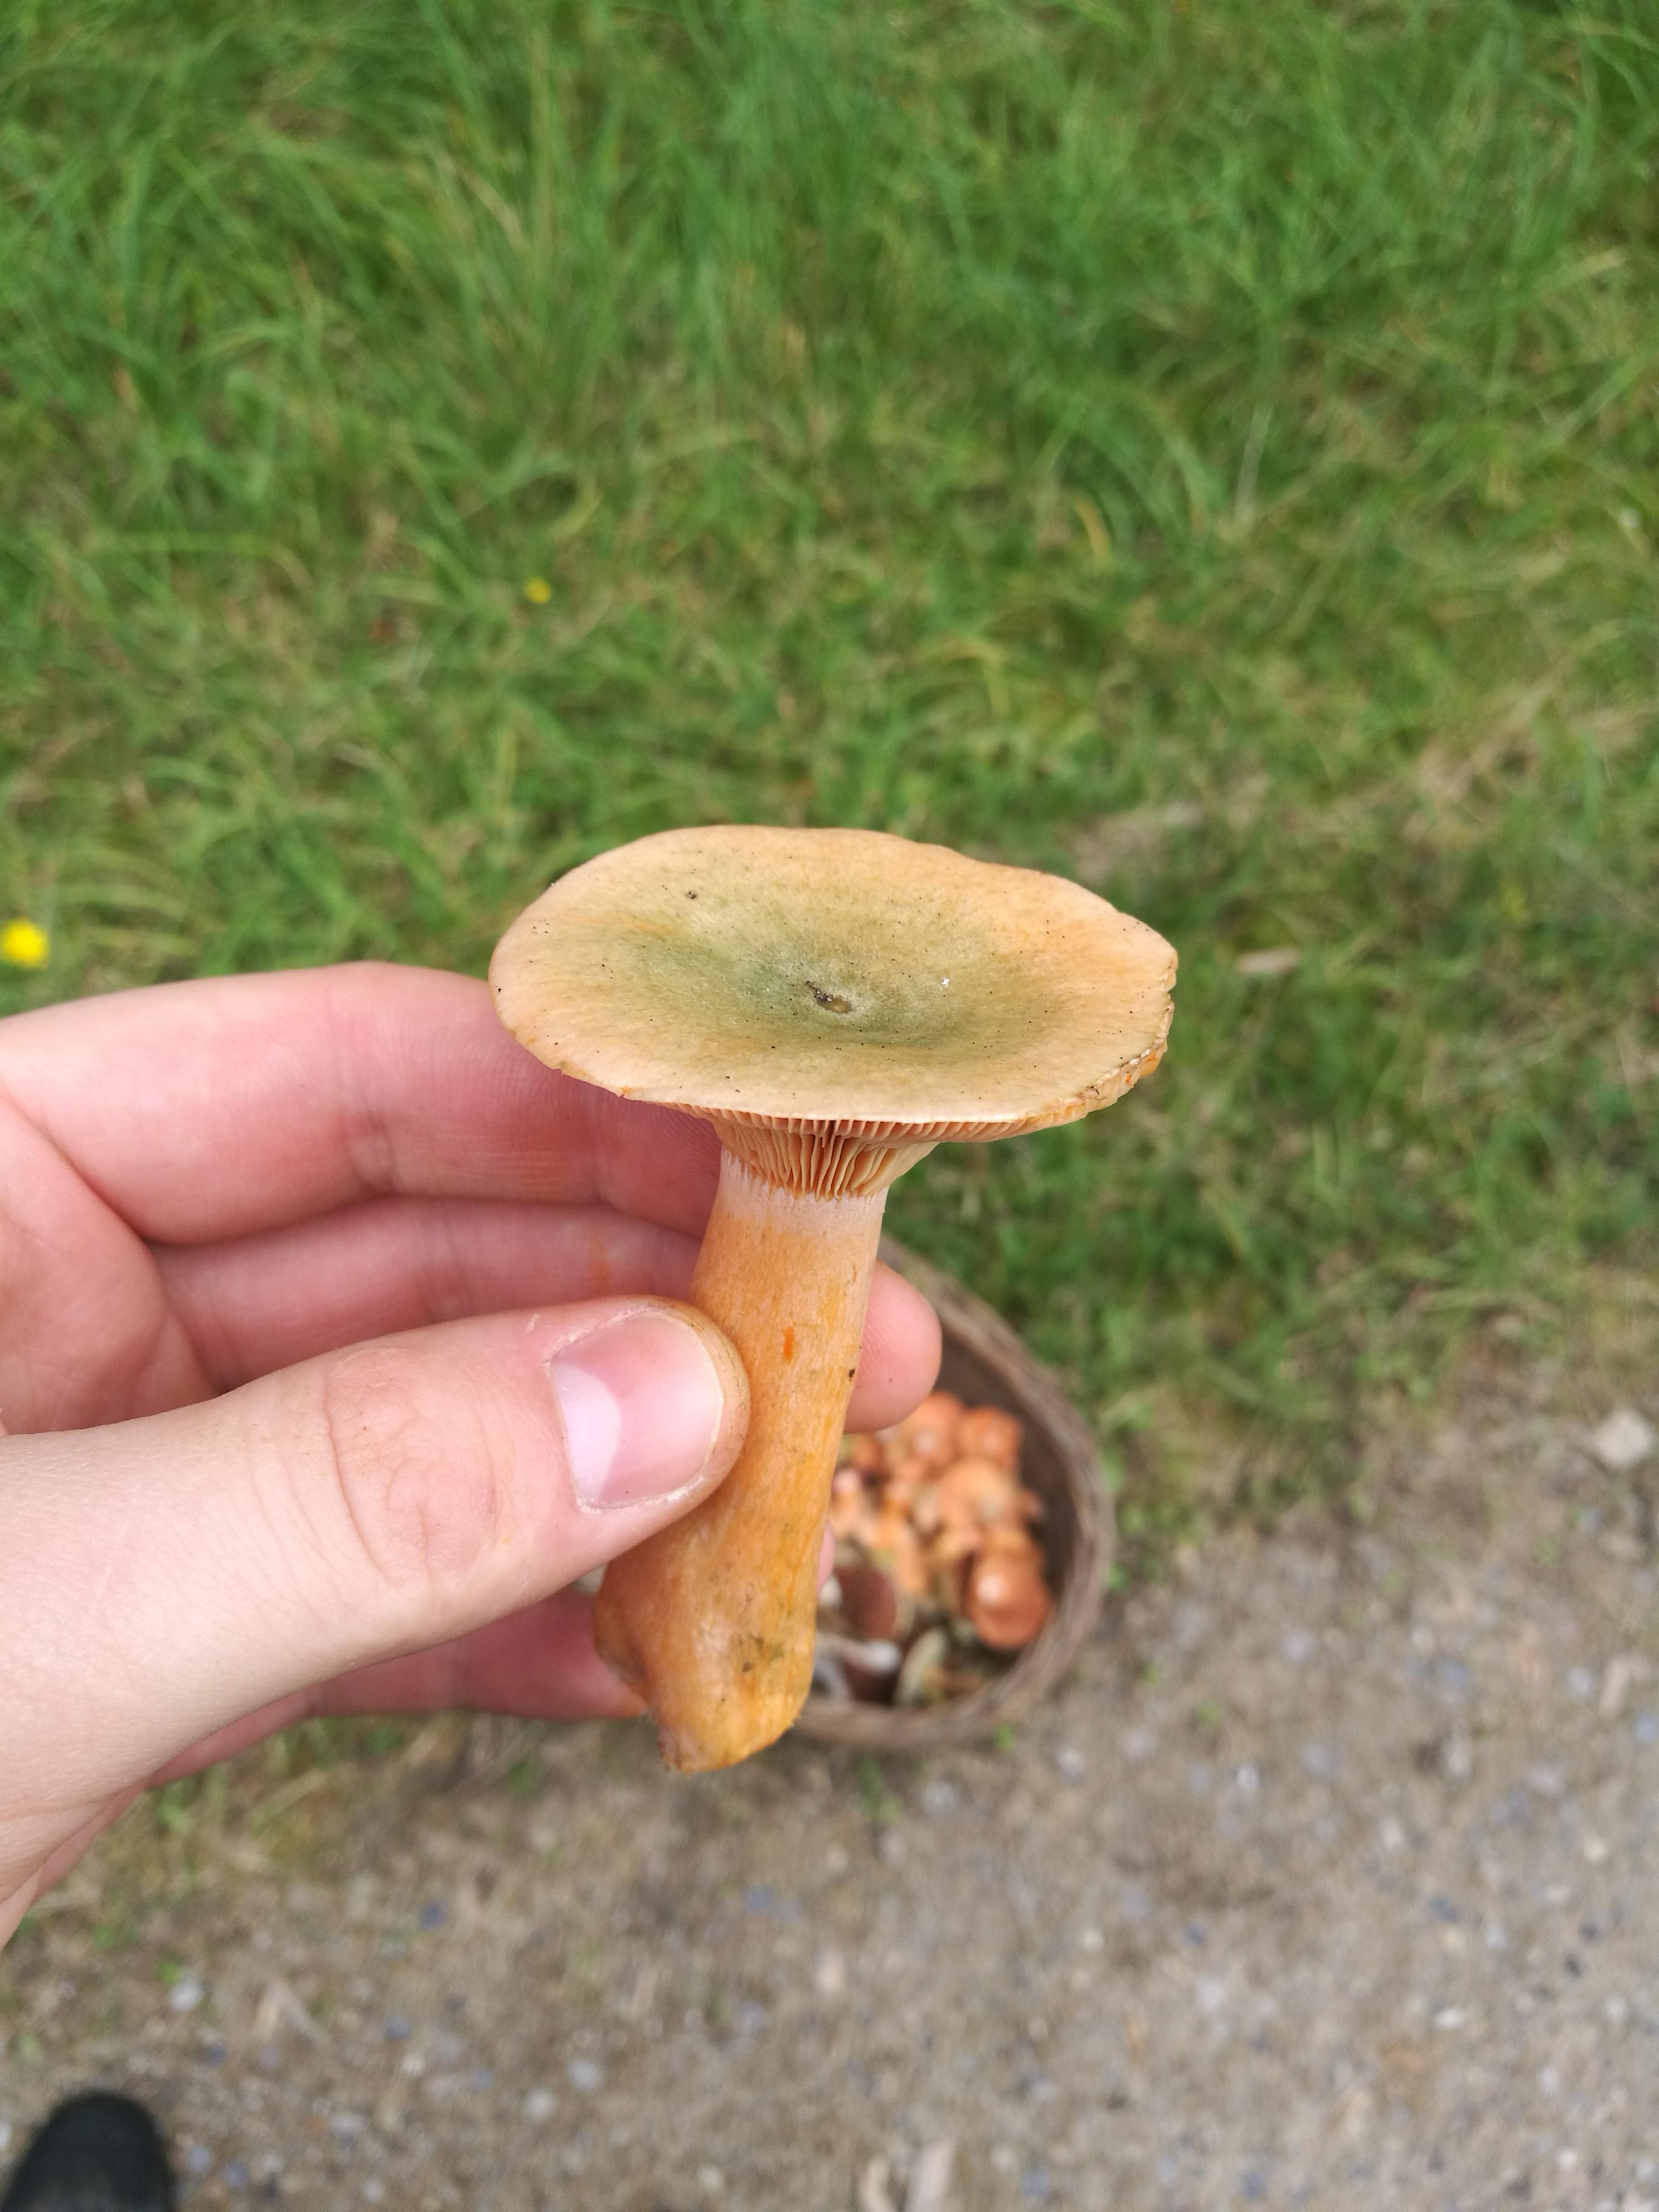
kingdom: Fungi
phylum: Basidiomycota
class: Agaricomycetes
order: Russulales
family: Russulaceae
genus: Lactarius
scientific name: Lactarius deterrimus
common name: gran-mælkehat
